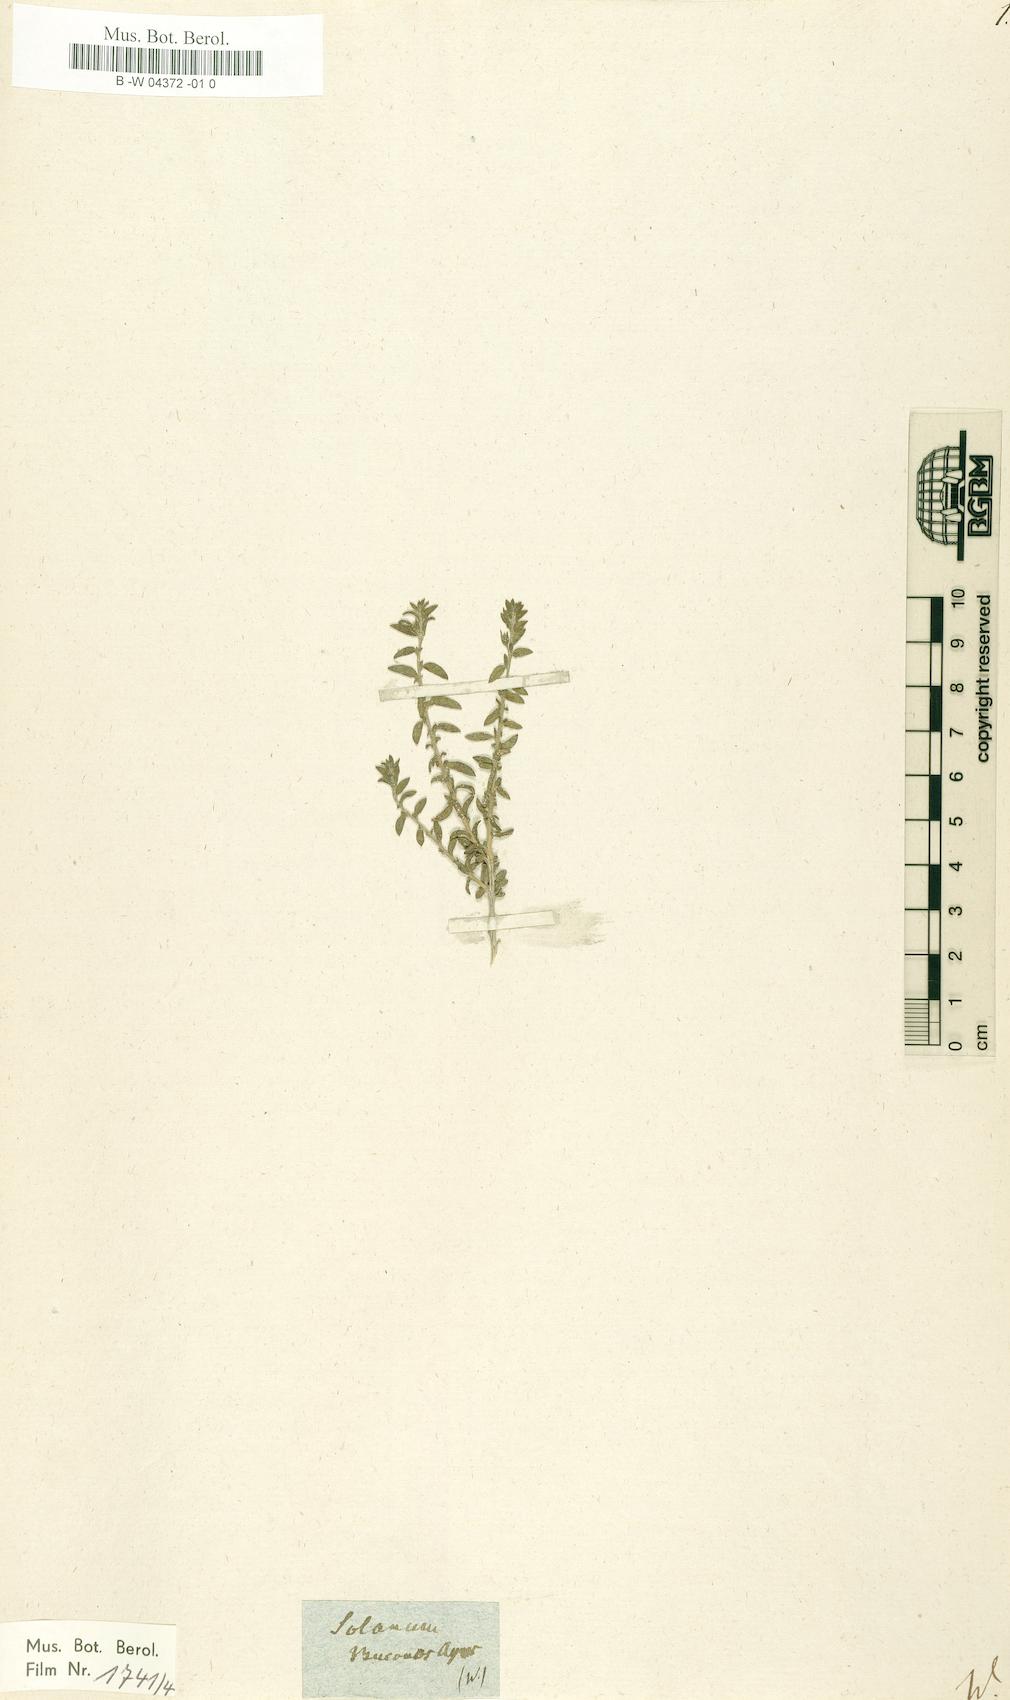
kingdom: Plantae
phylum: Tracheophyta
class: Magnoliopsida
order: Solanales
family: Solanaceae
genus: Solanum
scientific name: Solanum thymifolium
